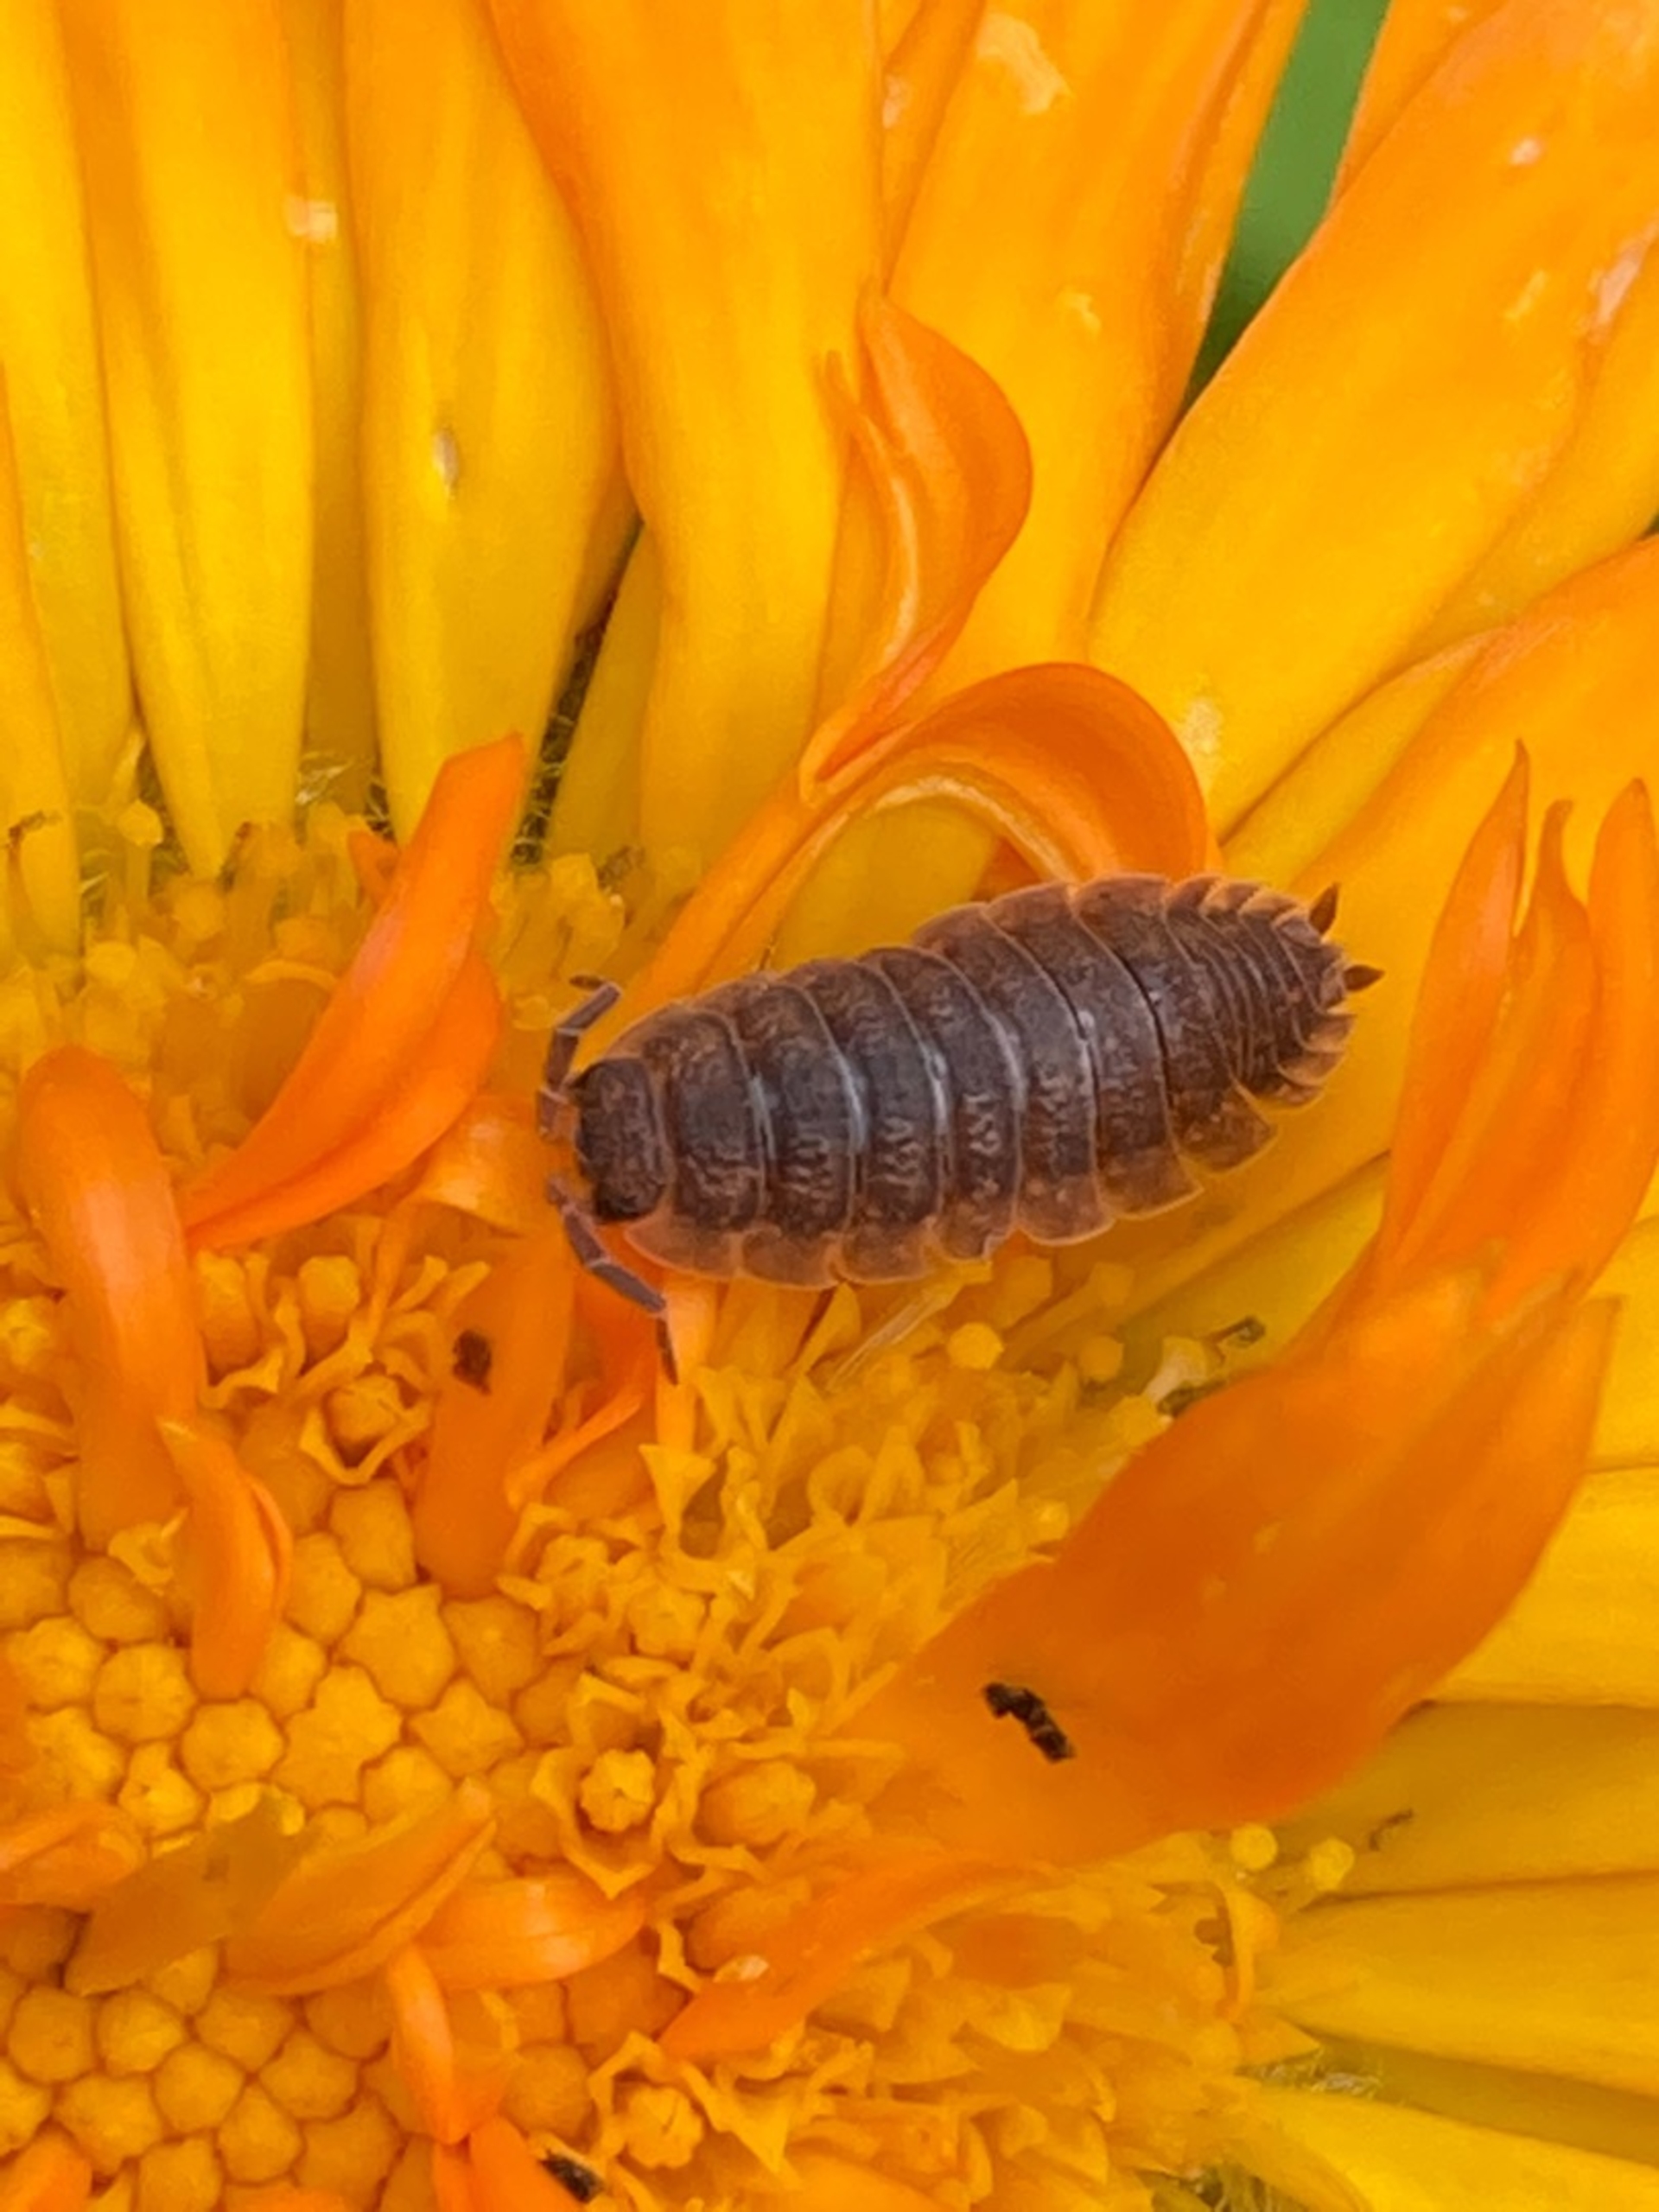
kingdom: Animalia
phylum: Arthropoda
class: Malacostraca
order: Isopoda
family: Porcellionidae
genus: Porcellio
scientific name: Porcellio scaber
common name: Grå bænkebider
